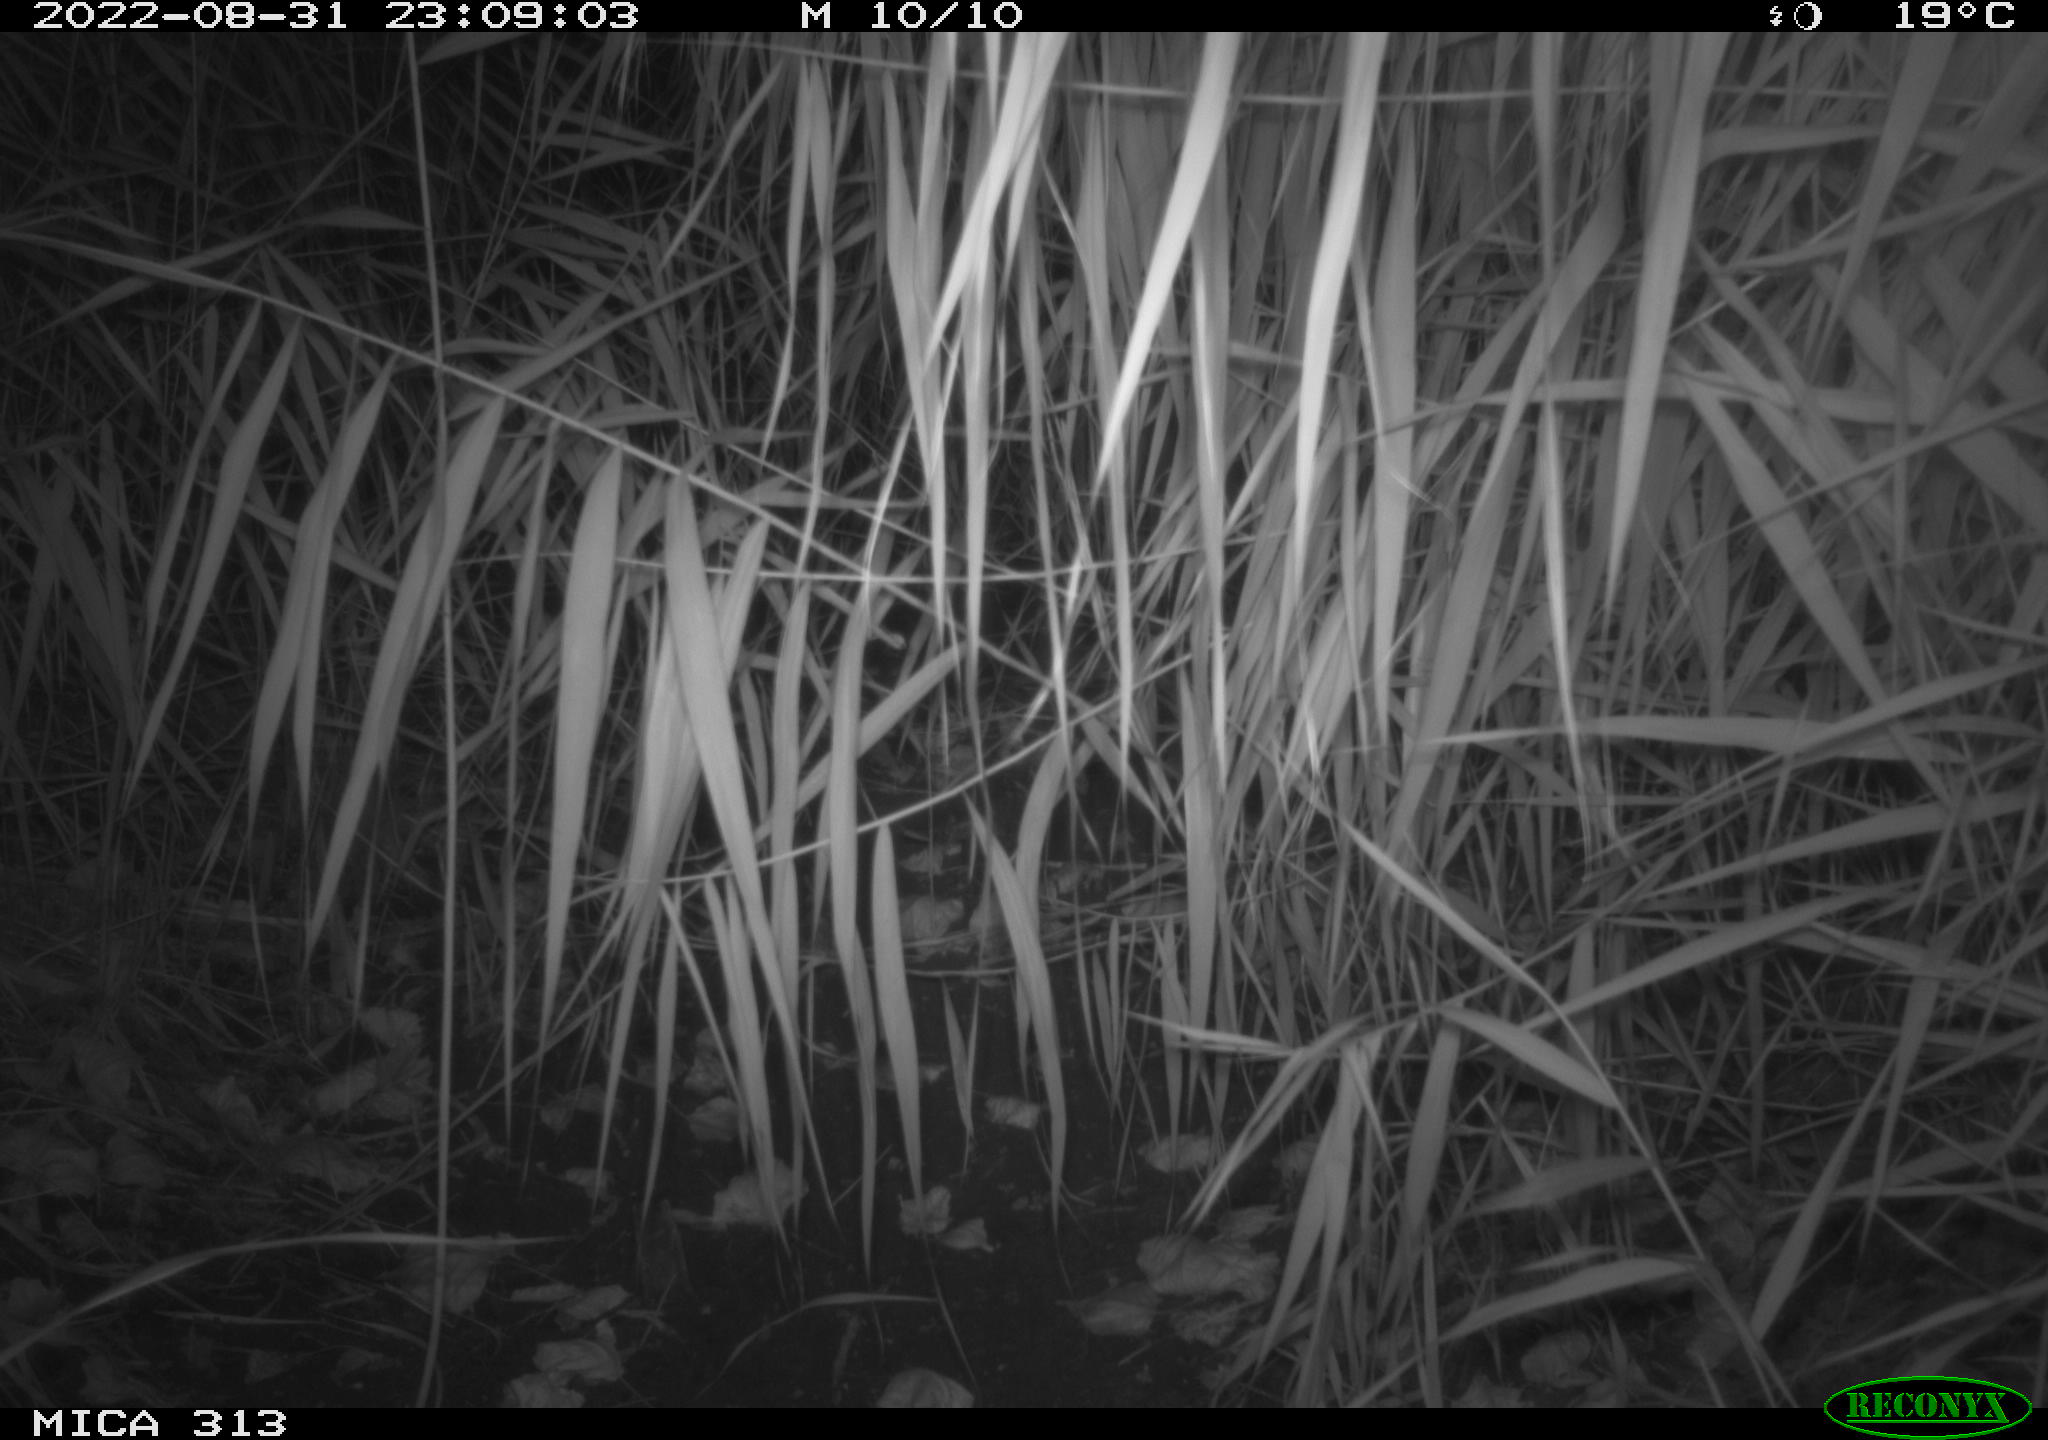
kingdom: Animalia
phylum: Chordata
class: Mammalia
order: Rodentia
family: Muridae
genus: Rattus
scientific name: Rattus norvegicus
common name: Brown rat
